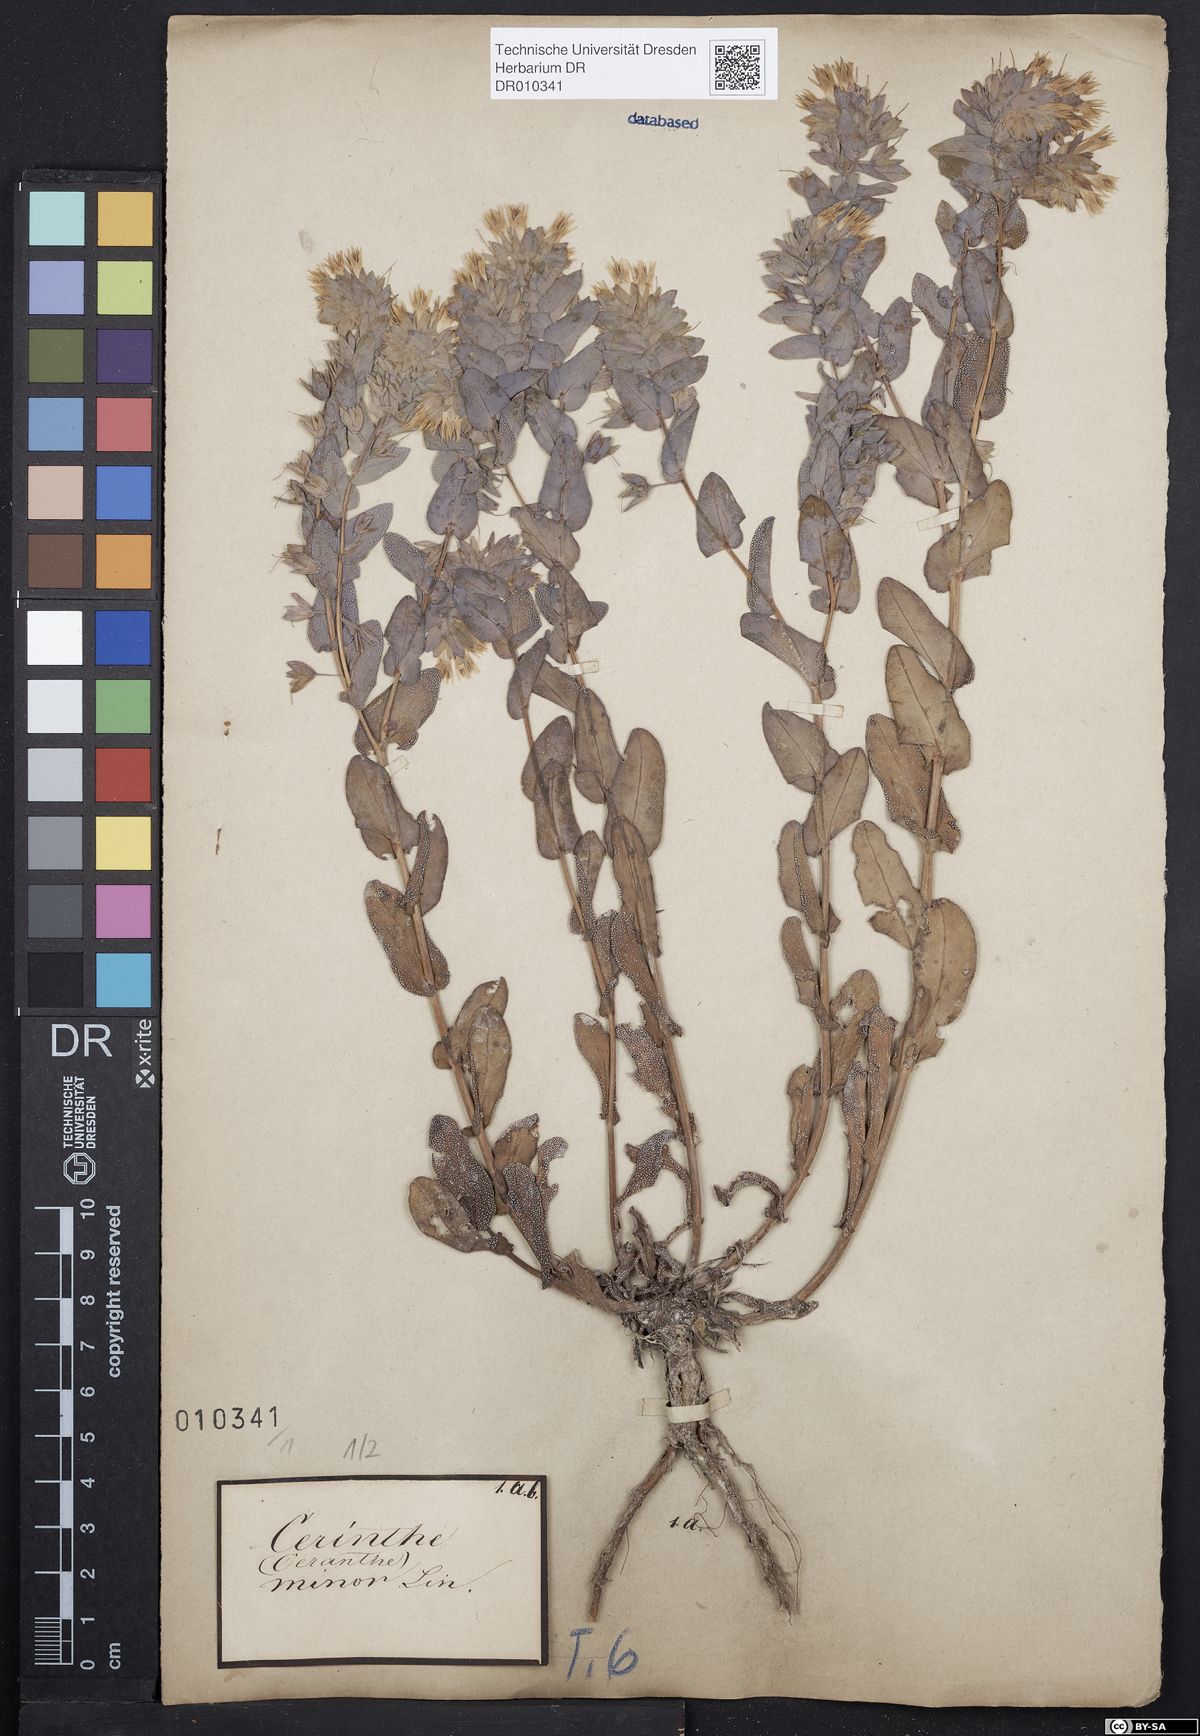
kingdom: Plantae
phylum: Tracheophyta
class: Magnoliopsida
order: Boraginales
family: Boraginaceae
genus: Cerinthe
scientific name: Cerinthe minor
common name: Lesser honeywort
